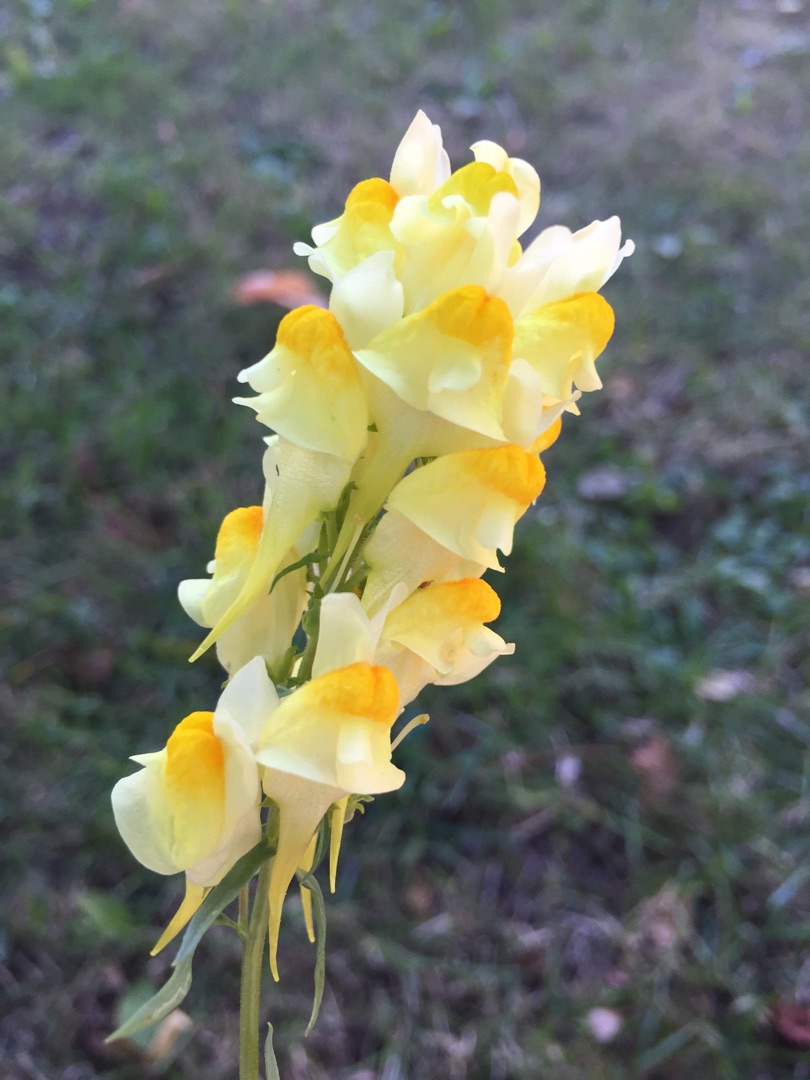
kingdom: Plantae
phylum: Tracheophyta
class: Magnoliopsida
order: Lamiales
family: Plantaginaceae
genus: Linaria
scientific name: Linaria vulgaris
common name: Almindelig torskemund
